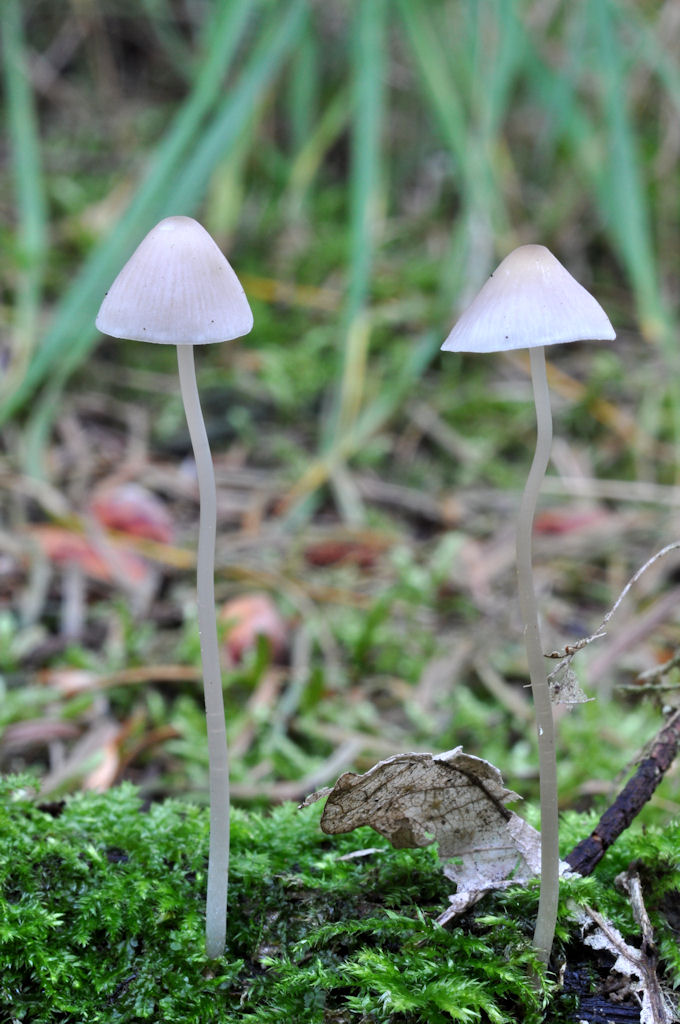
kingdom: Fungi
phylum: Basidiomycota
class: Agaricomycetes
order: Agaricales
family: Mycenaceae
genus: Mycena
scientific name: Mycena vitilis
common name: blankstokket huesvamp
